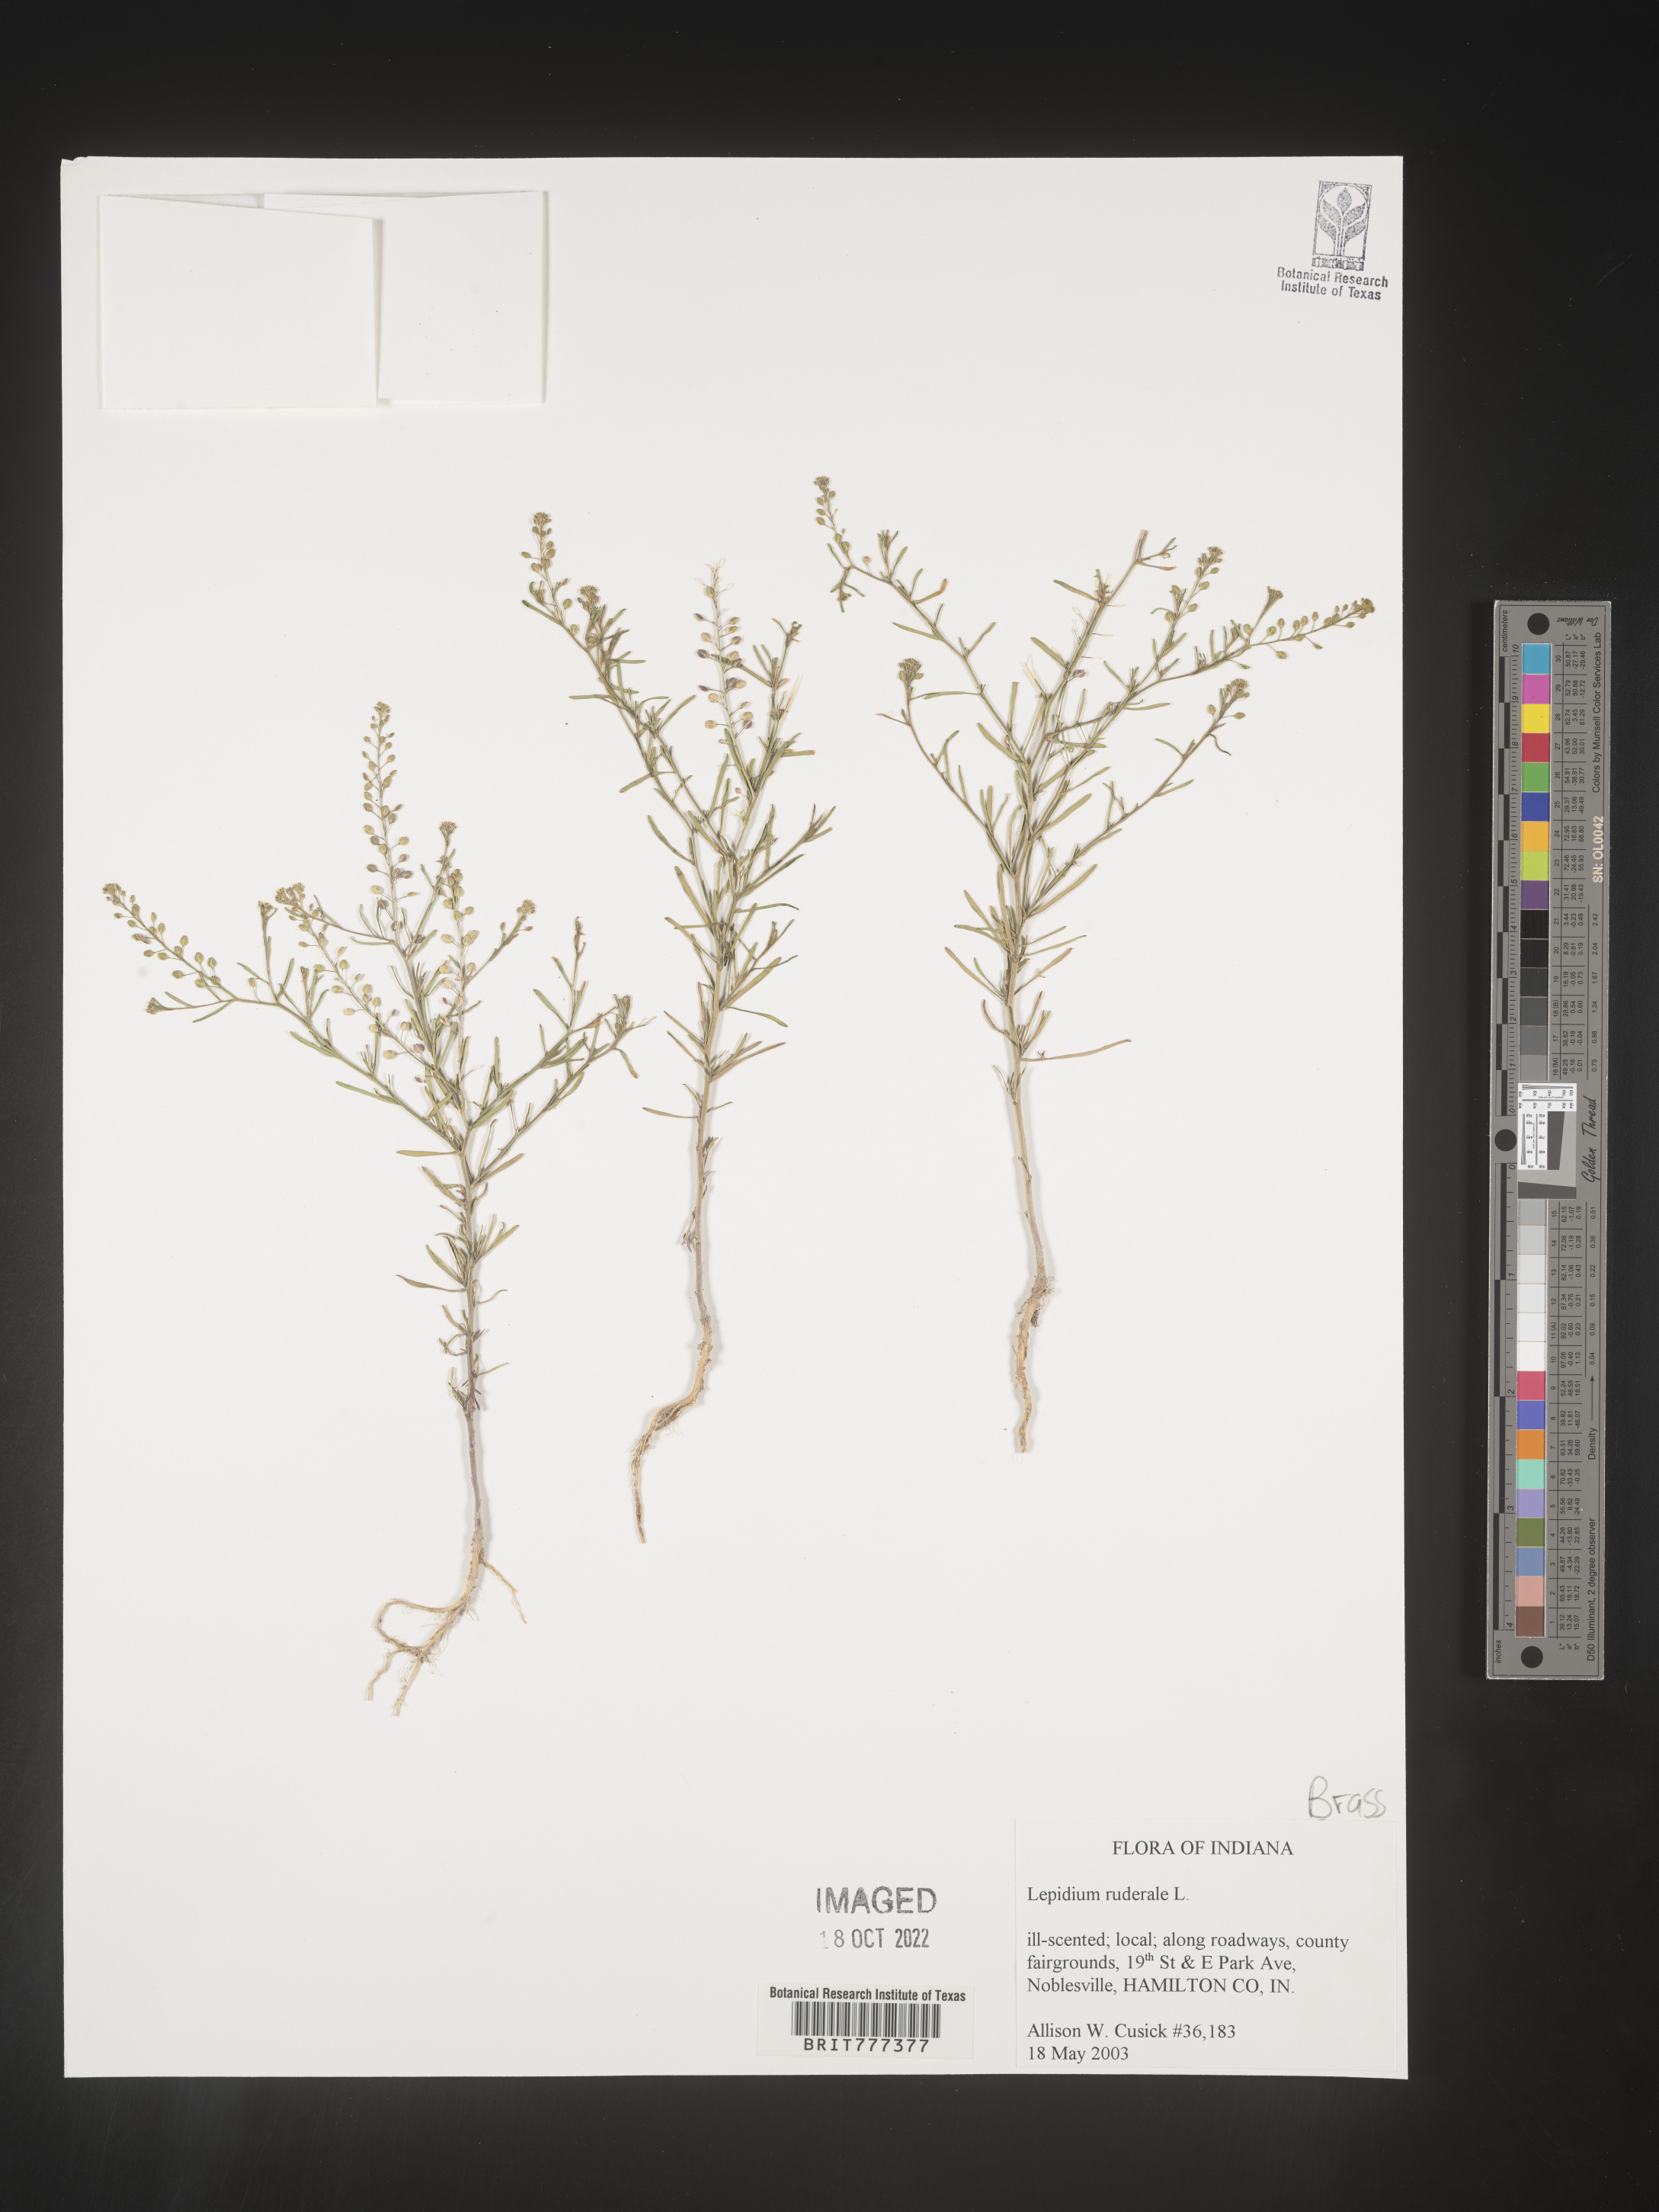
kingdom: Plantae
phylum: Tracheophyta
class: Magnoliopsida
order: Brassicales
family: Brassicaceae
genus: Lepidium
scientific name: Lepidium
